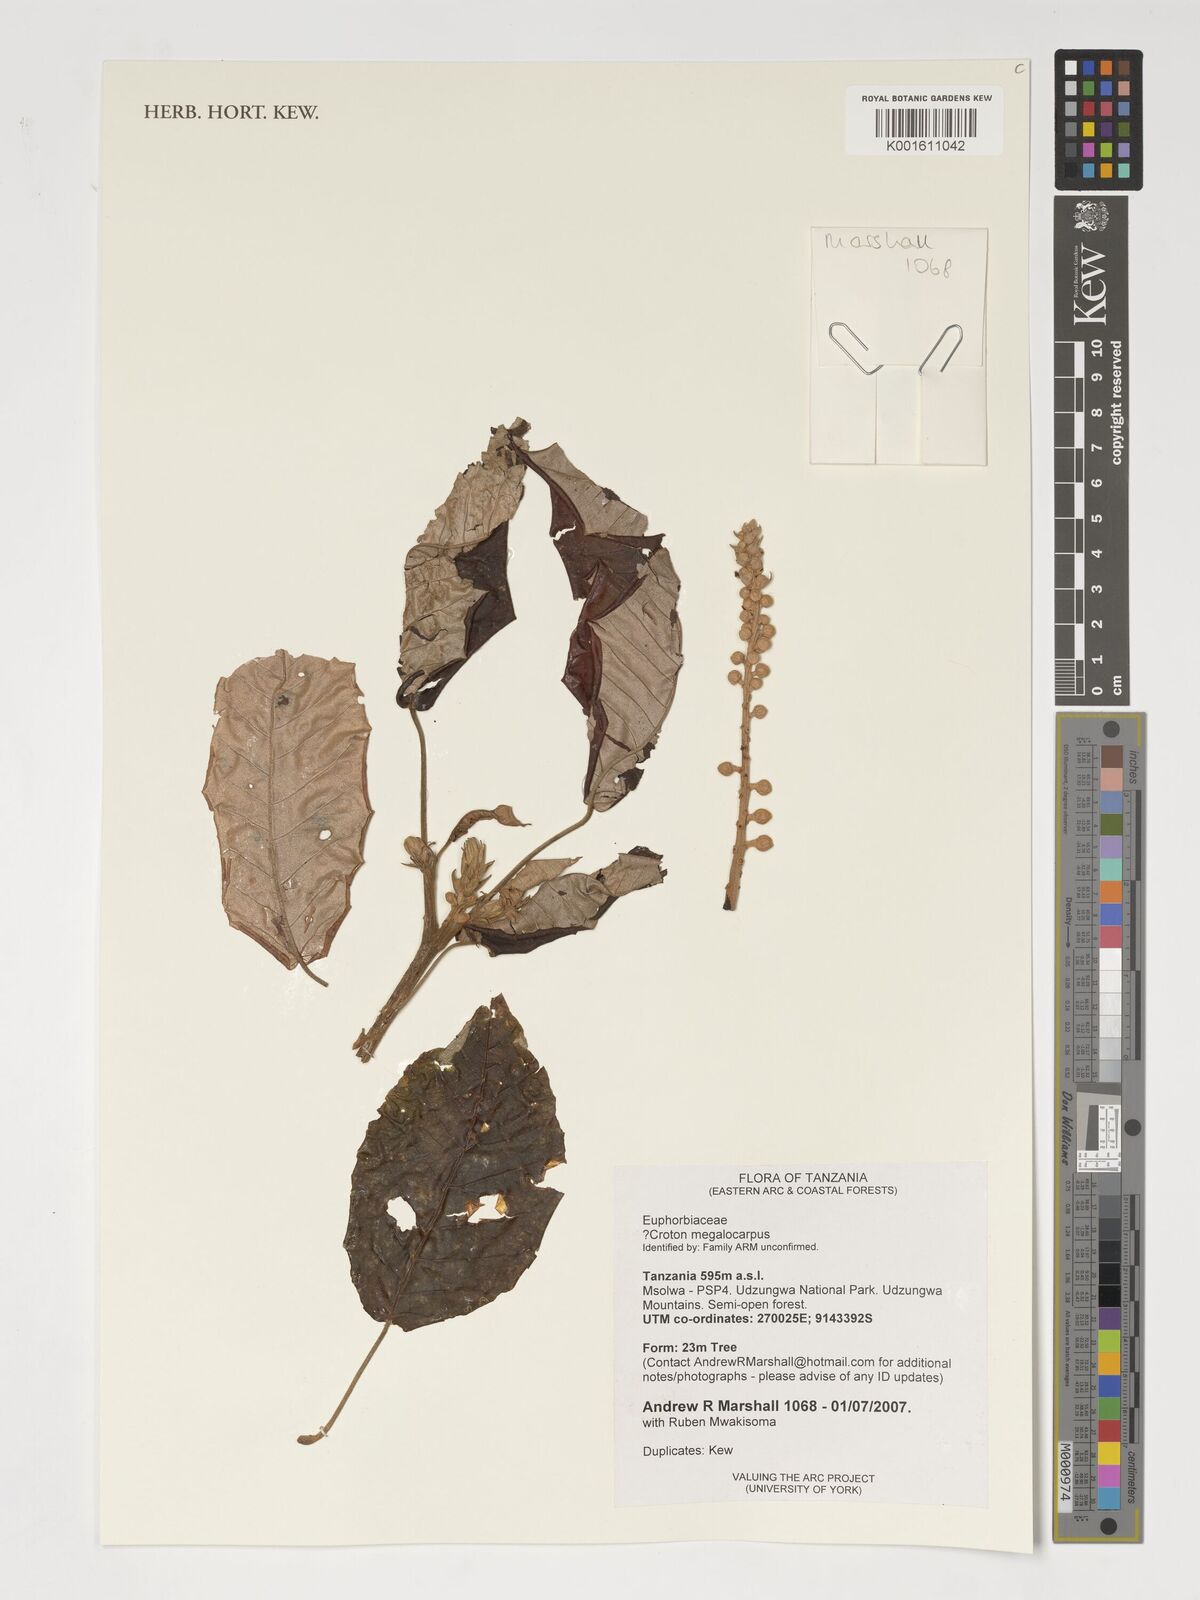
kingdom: Plantae
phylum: Tracheophyta
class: Magnoliopsida
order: Malpighiales
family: Euphorbiaceae
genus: Croton
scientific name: Croton megalocarpus
